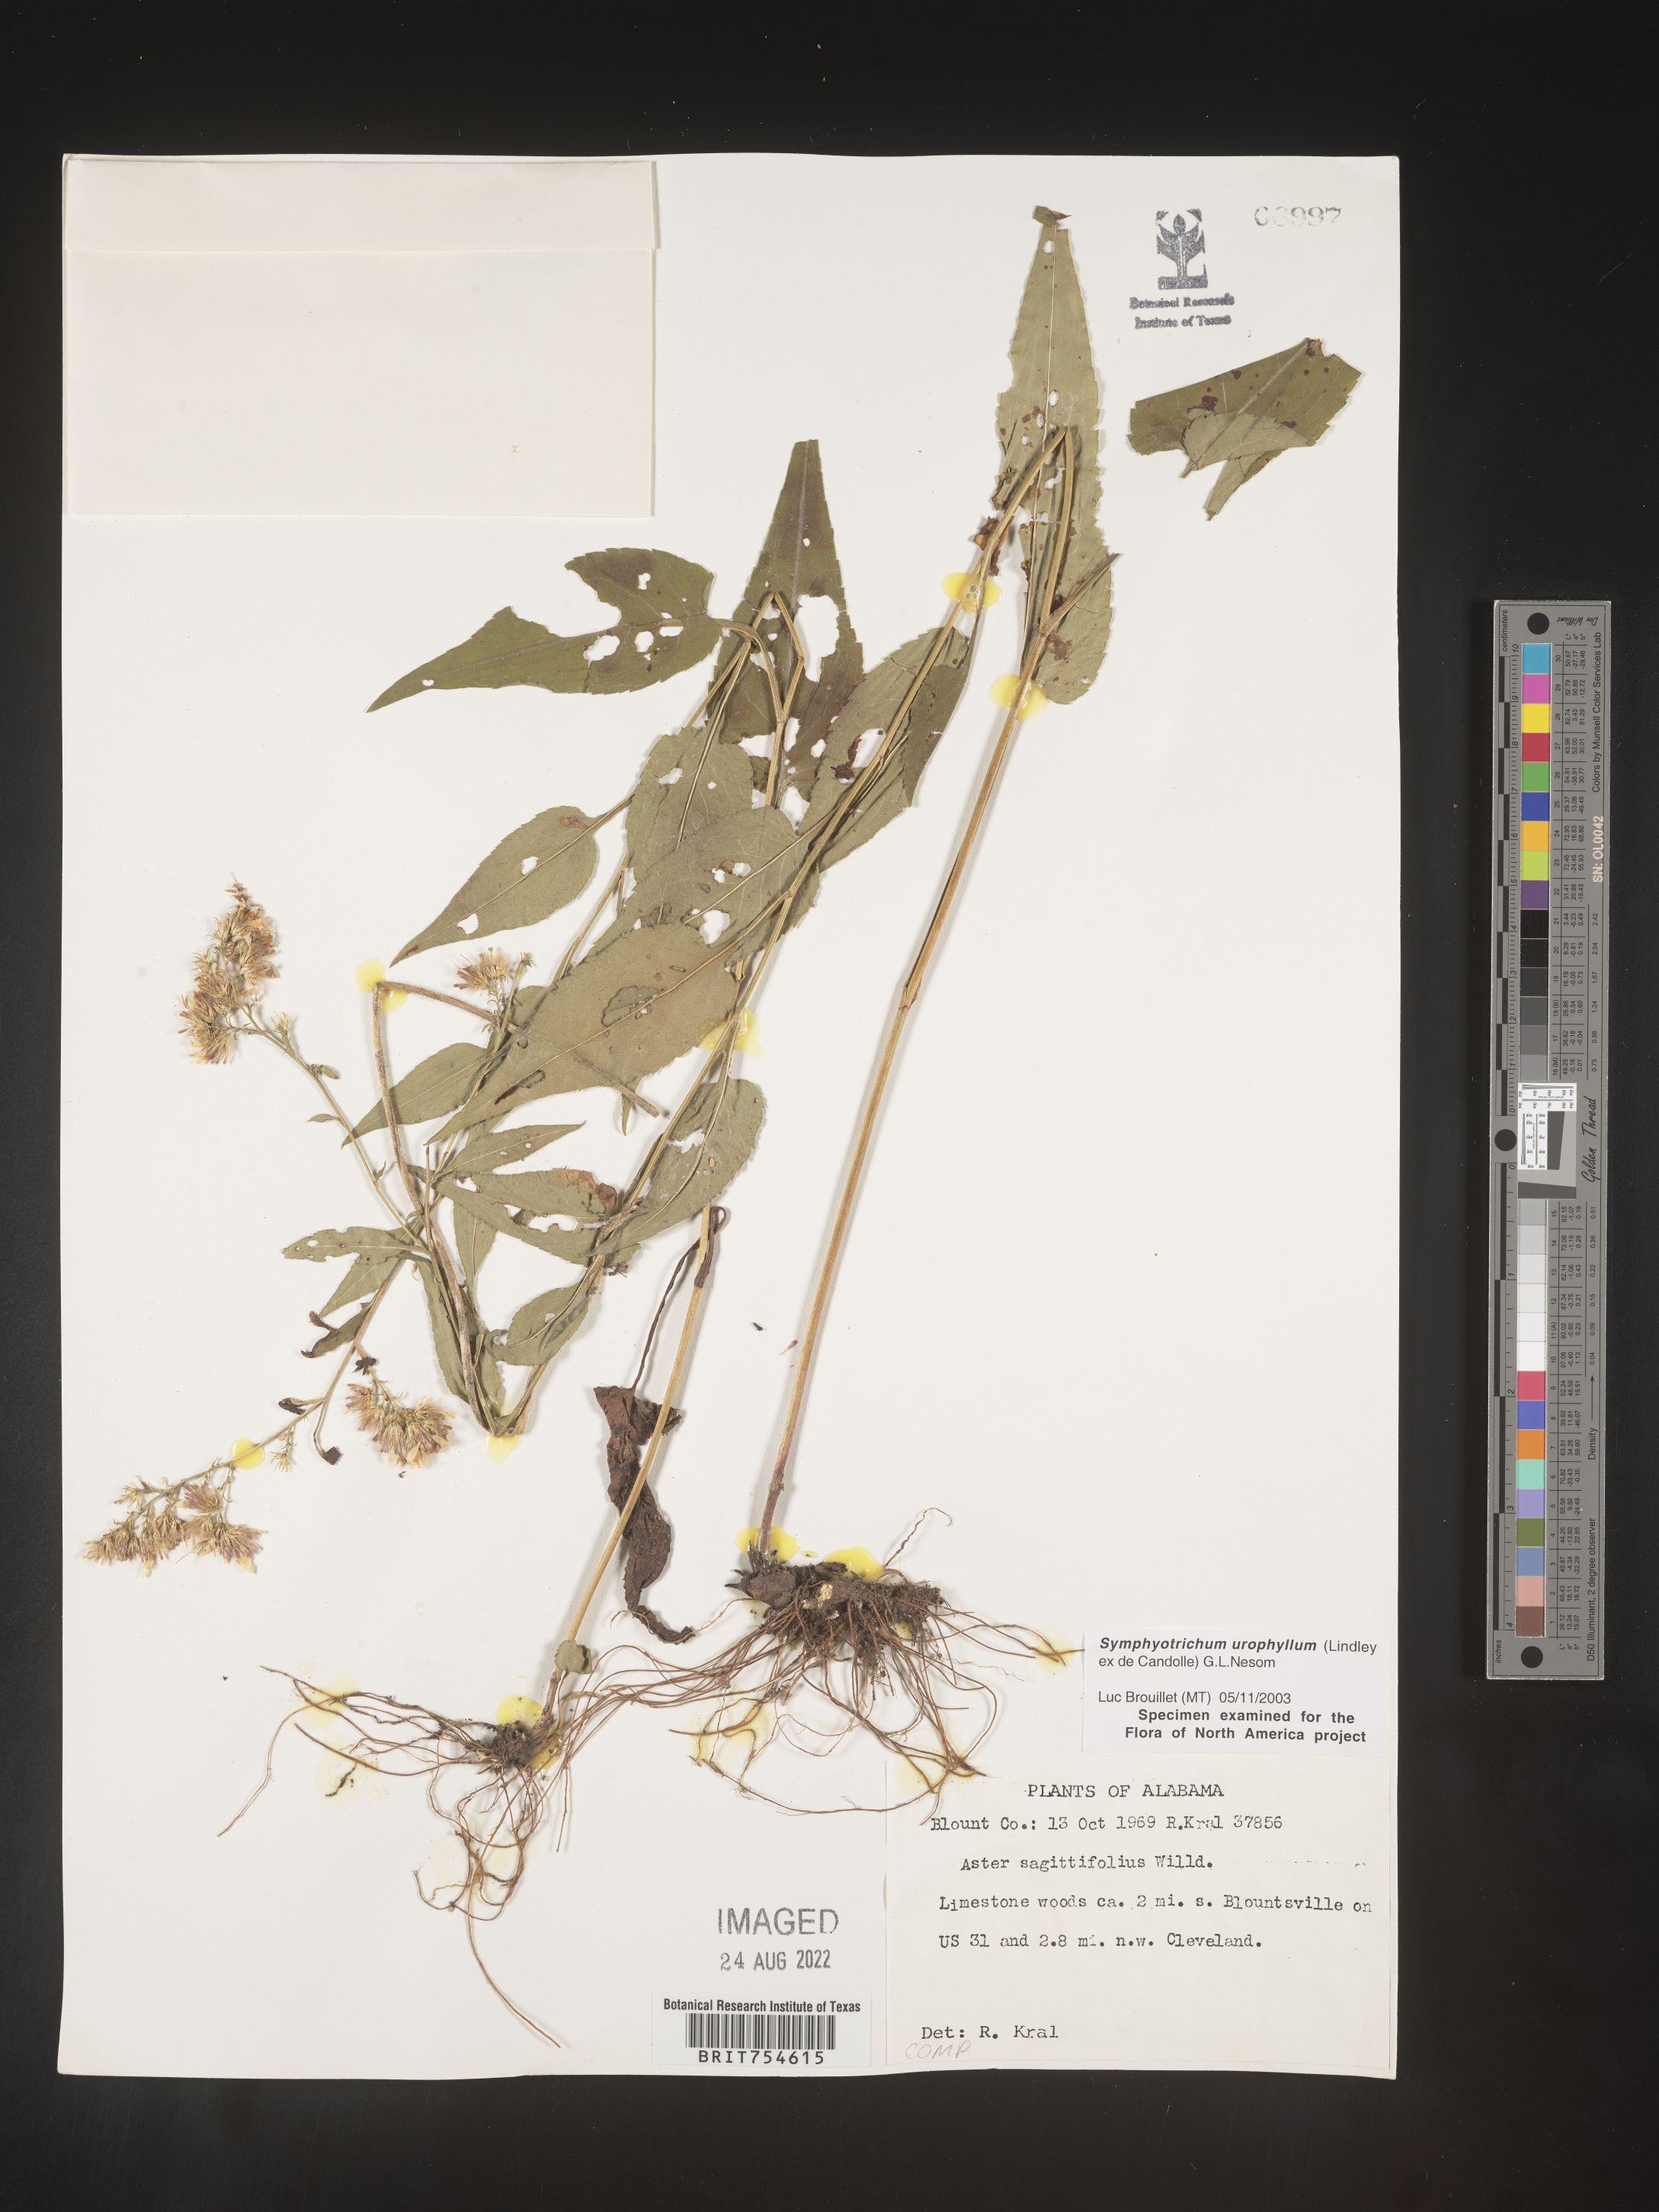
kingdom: Plantae
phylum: Tracheophyta
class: Magnoliopsida
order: Asterales
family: Asteraceae
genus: Symphyotrichum
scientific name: Symphyotrichum urophyllum
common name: Arrow-leaved aster
